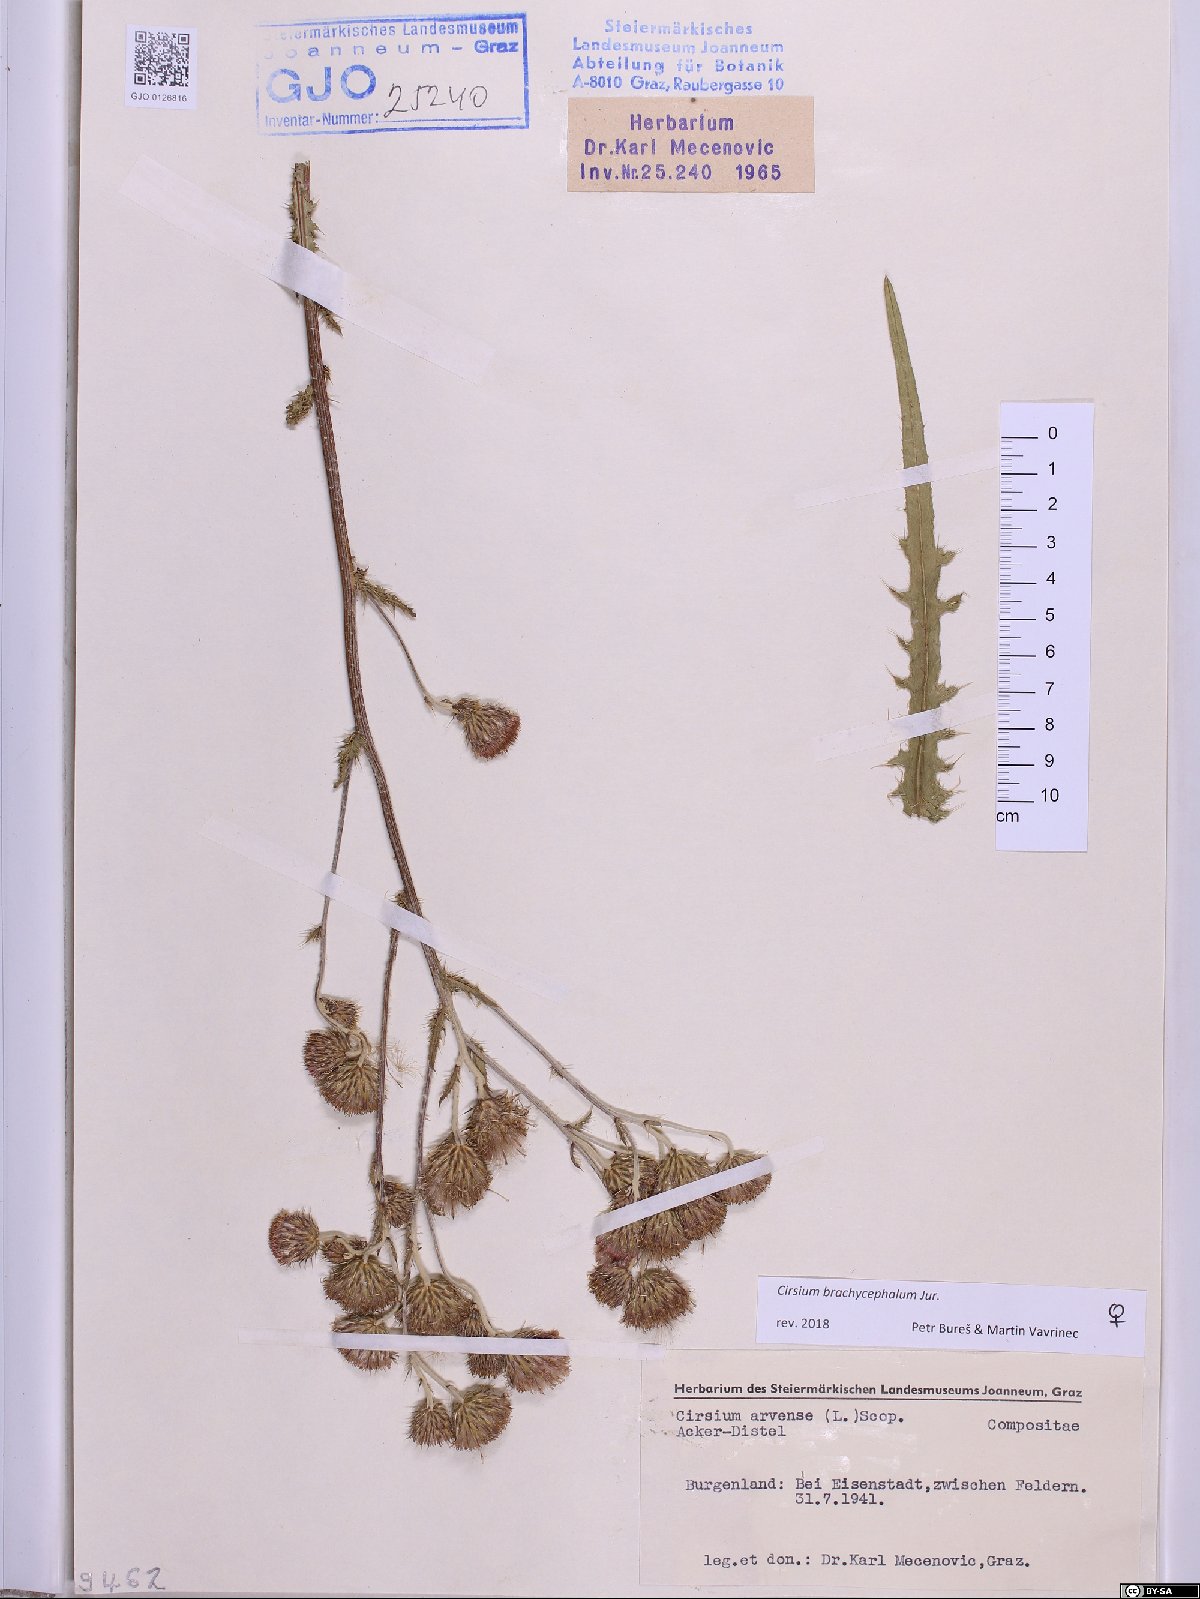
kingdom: Plantae
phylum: Tracheophyta
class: Magnoliopsida
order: Asterales
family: Asteraceae
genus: Cirsium
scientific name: Cirsium brachycephalum
